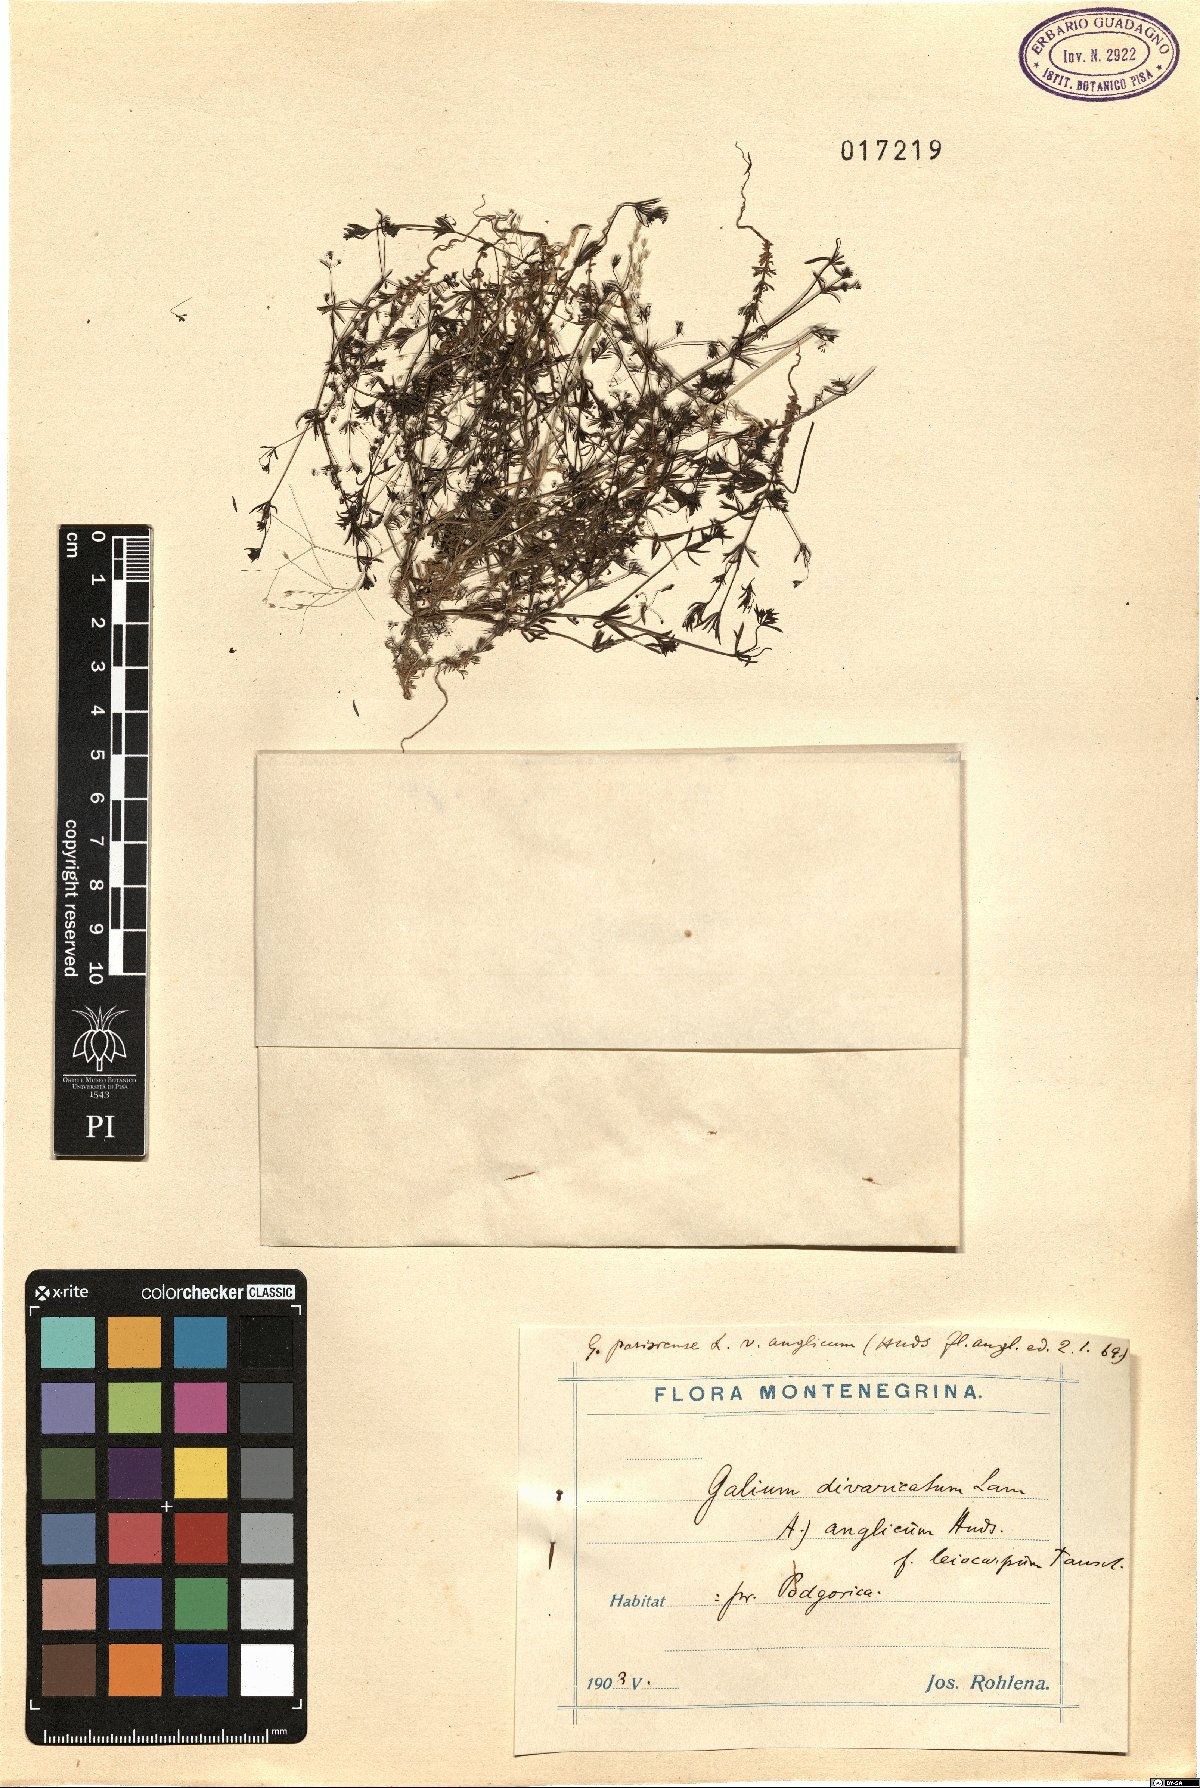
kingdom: Plantae
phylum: Tracheophyta
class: Magnoliopsida
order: Gentianales
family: Rubiaceae
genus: Galium
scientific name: Galium divaricatum
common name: Lamarck's bedstraw
